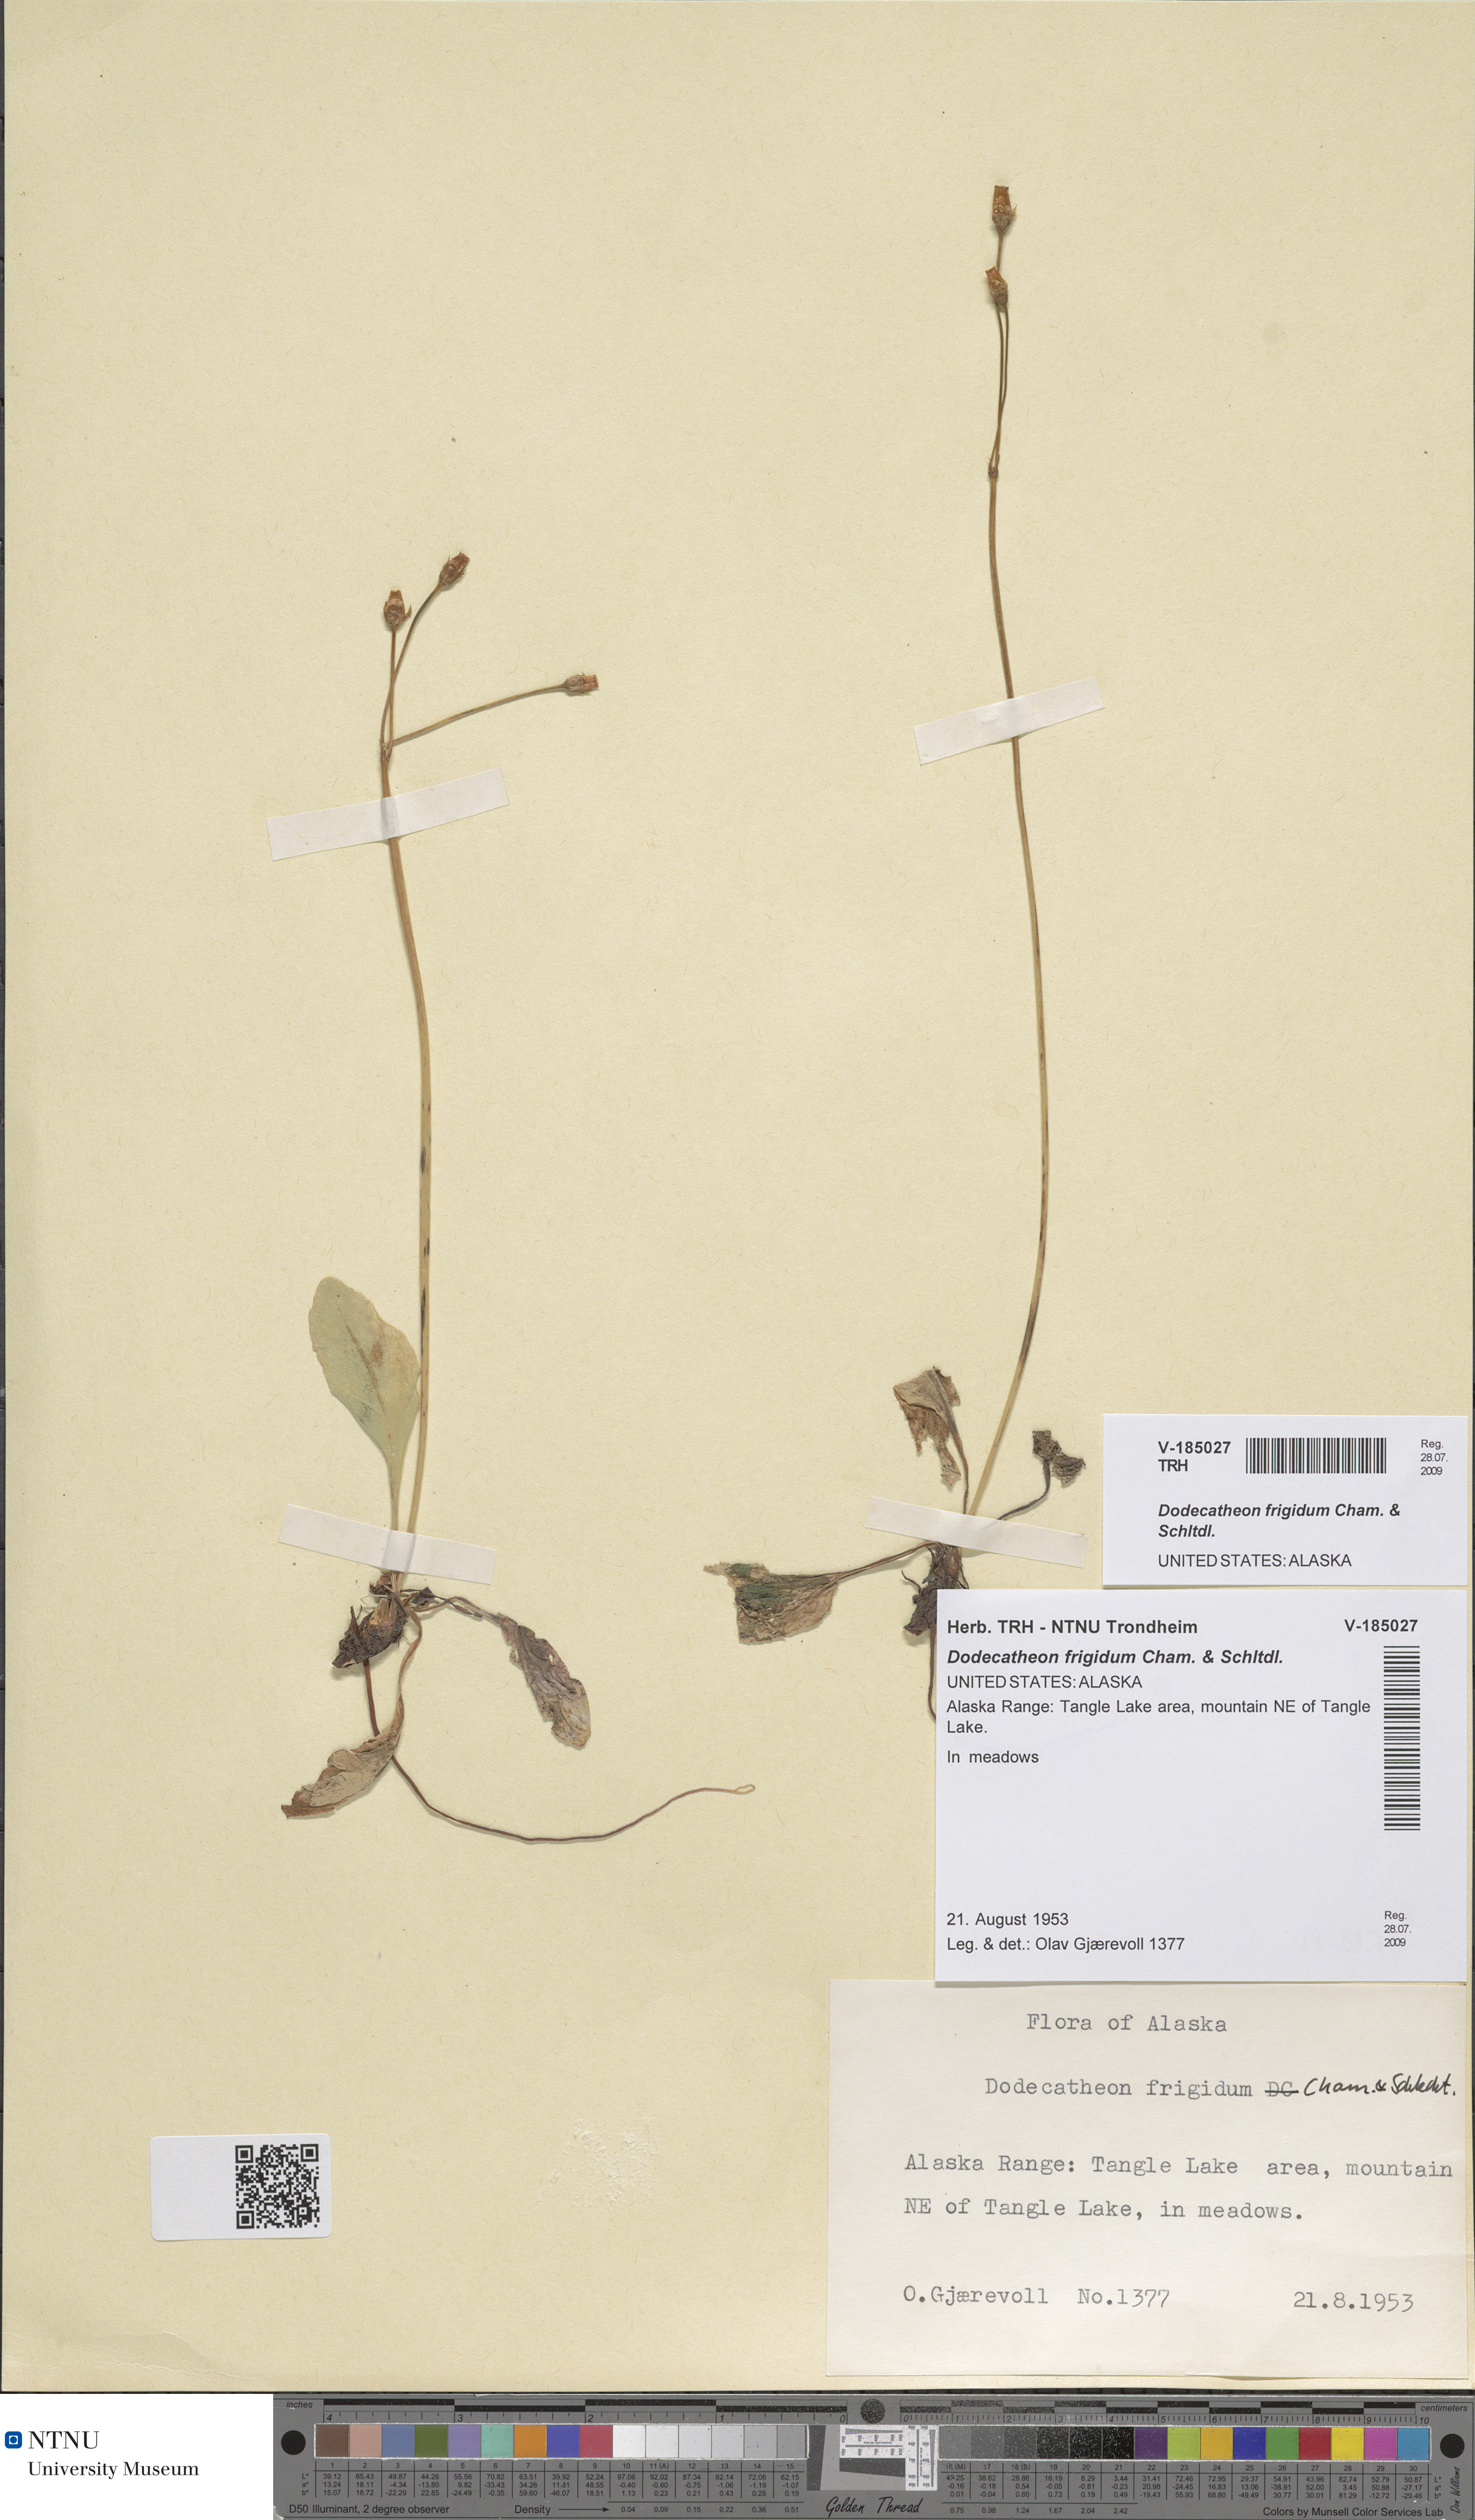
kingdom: Plantae
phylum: Tracheophyta
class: Magnoliopsida
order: Ericales
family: Primulaceae
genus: Dodecatheon
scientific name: Dodecatheon frigidum
